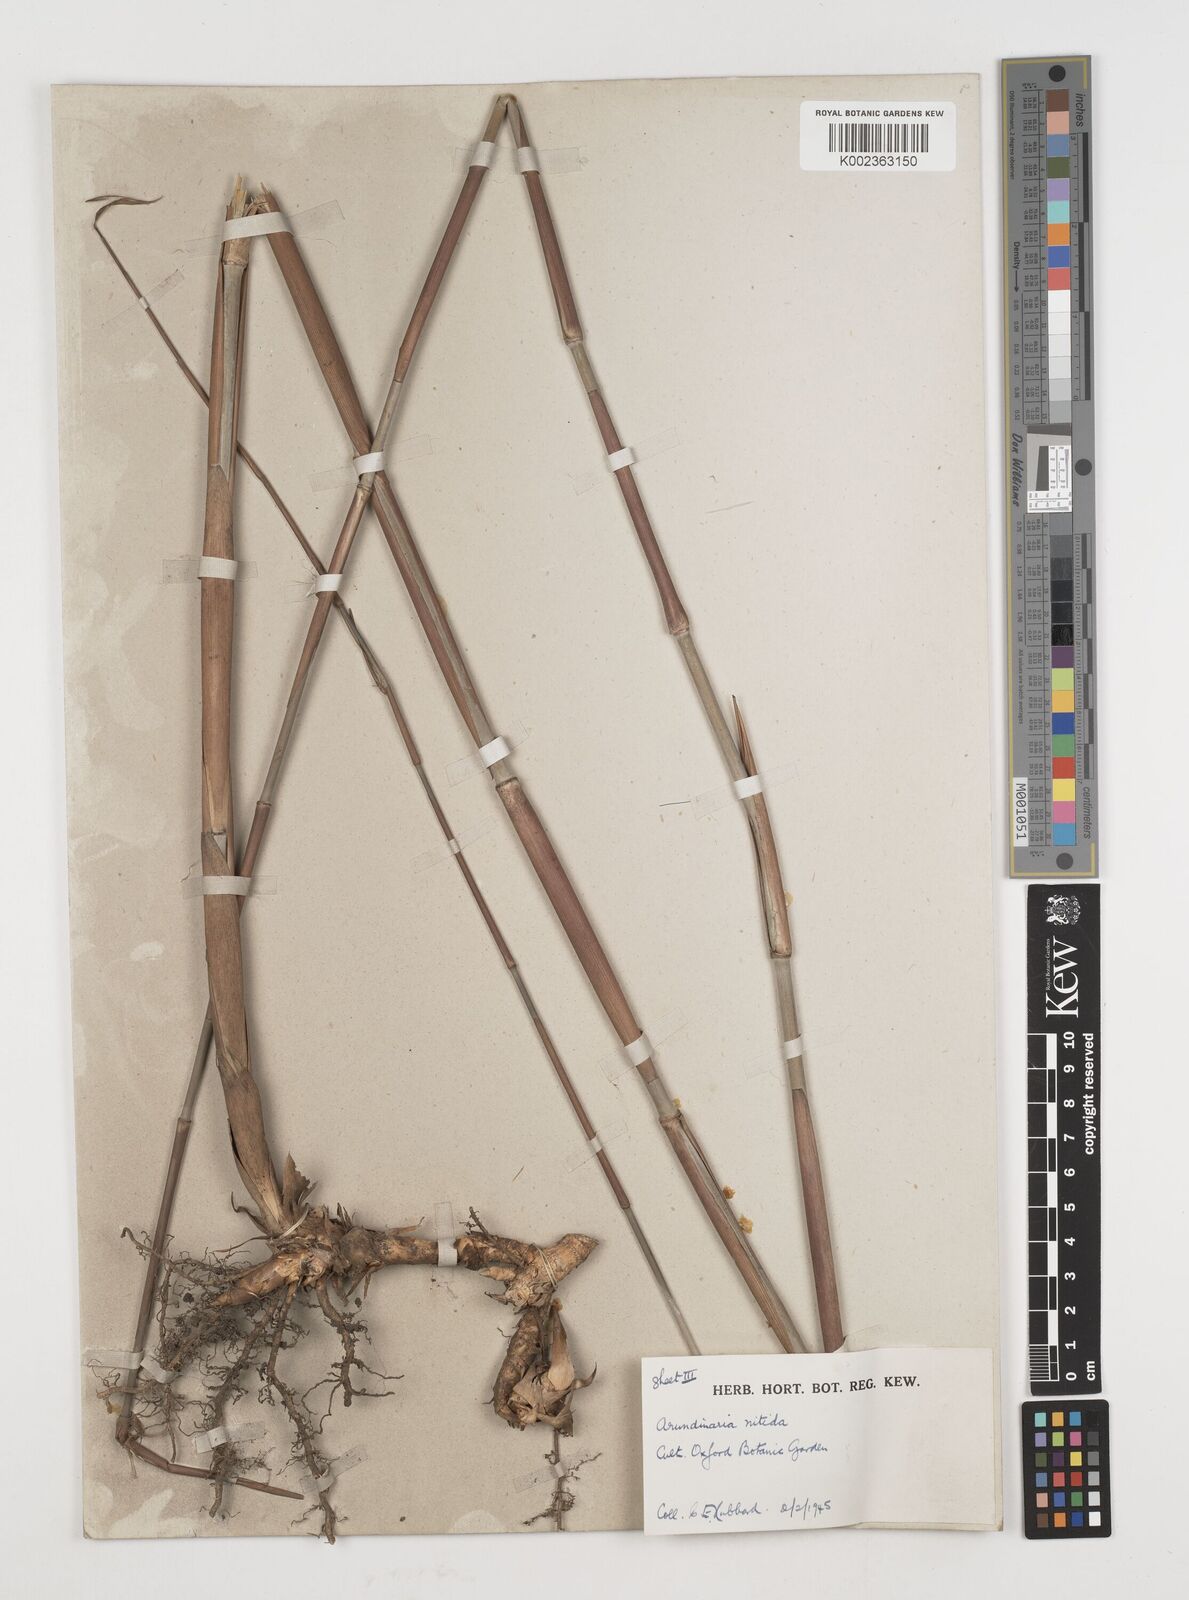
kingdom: Plantae
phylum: Tracheophyta
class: Liliopsida
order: Poales
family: Poaceae
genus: Fargesia
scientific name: Fargesia
